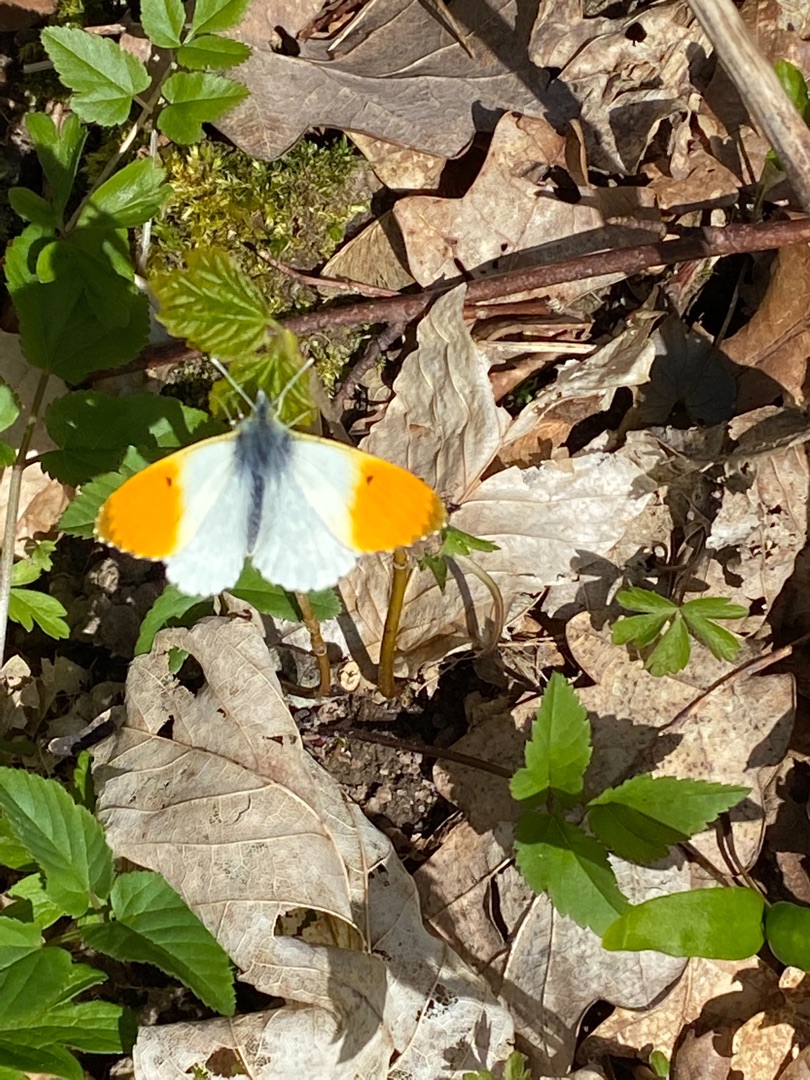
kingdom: Animalia
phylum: Arthropoda
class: Insecta
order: Lepidoptera
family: Pieridae
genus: Anthocharis
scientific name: Anthocharis cardamines
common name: Aurora
